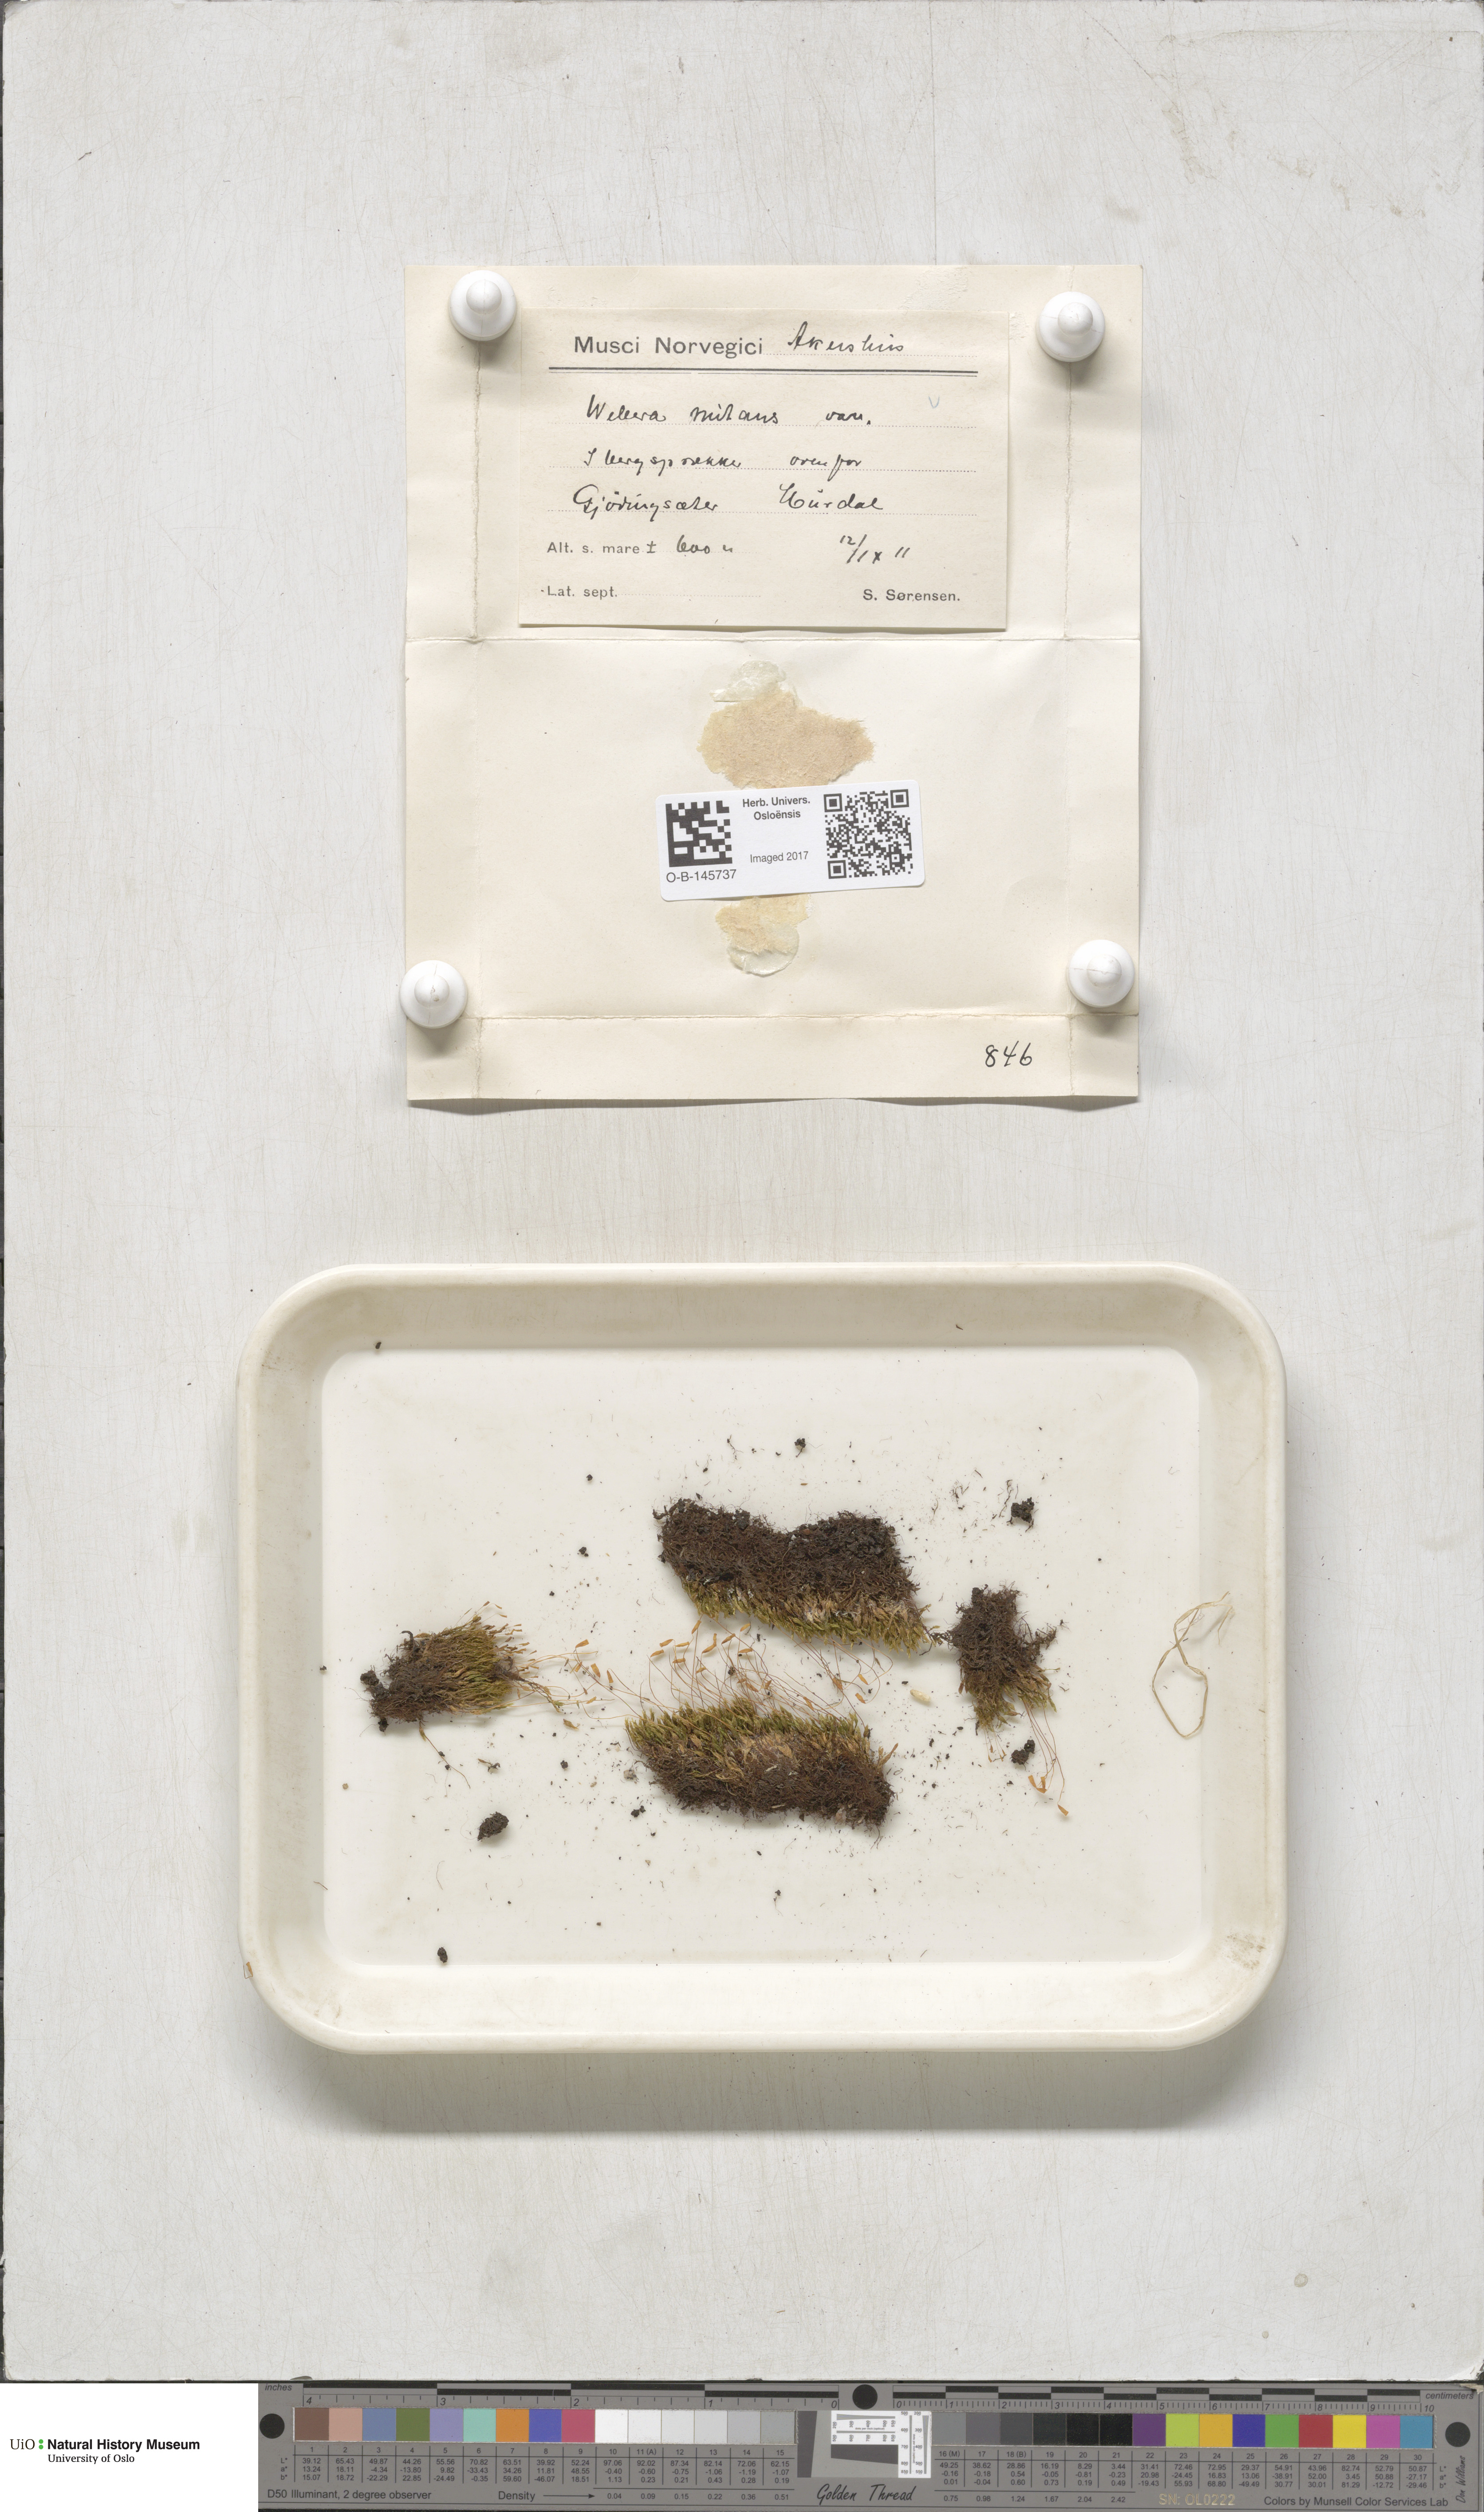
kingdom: Plantae
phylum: Bryophyta
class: Bryopsida
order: Bryales
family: Mniaceae
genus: Pohlia
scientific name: Pohlia nutans
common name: Nodding thread-moss
